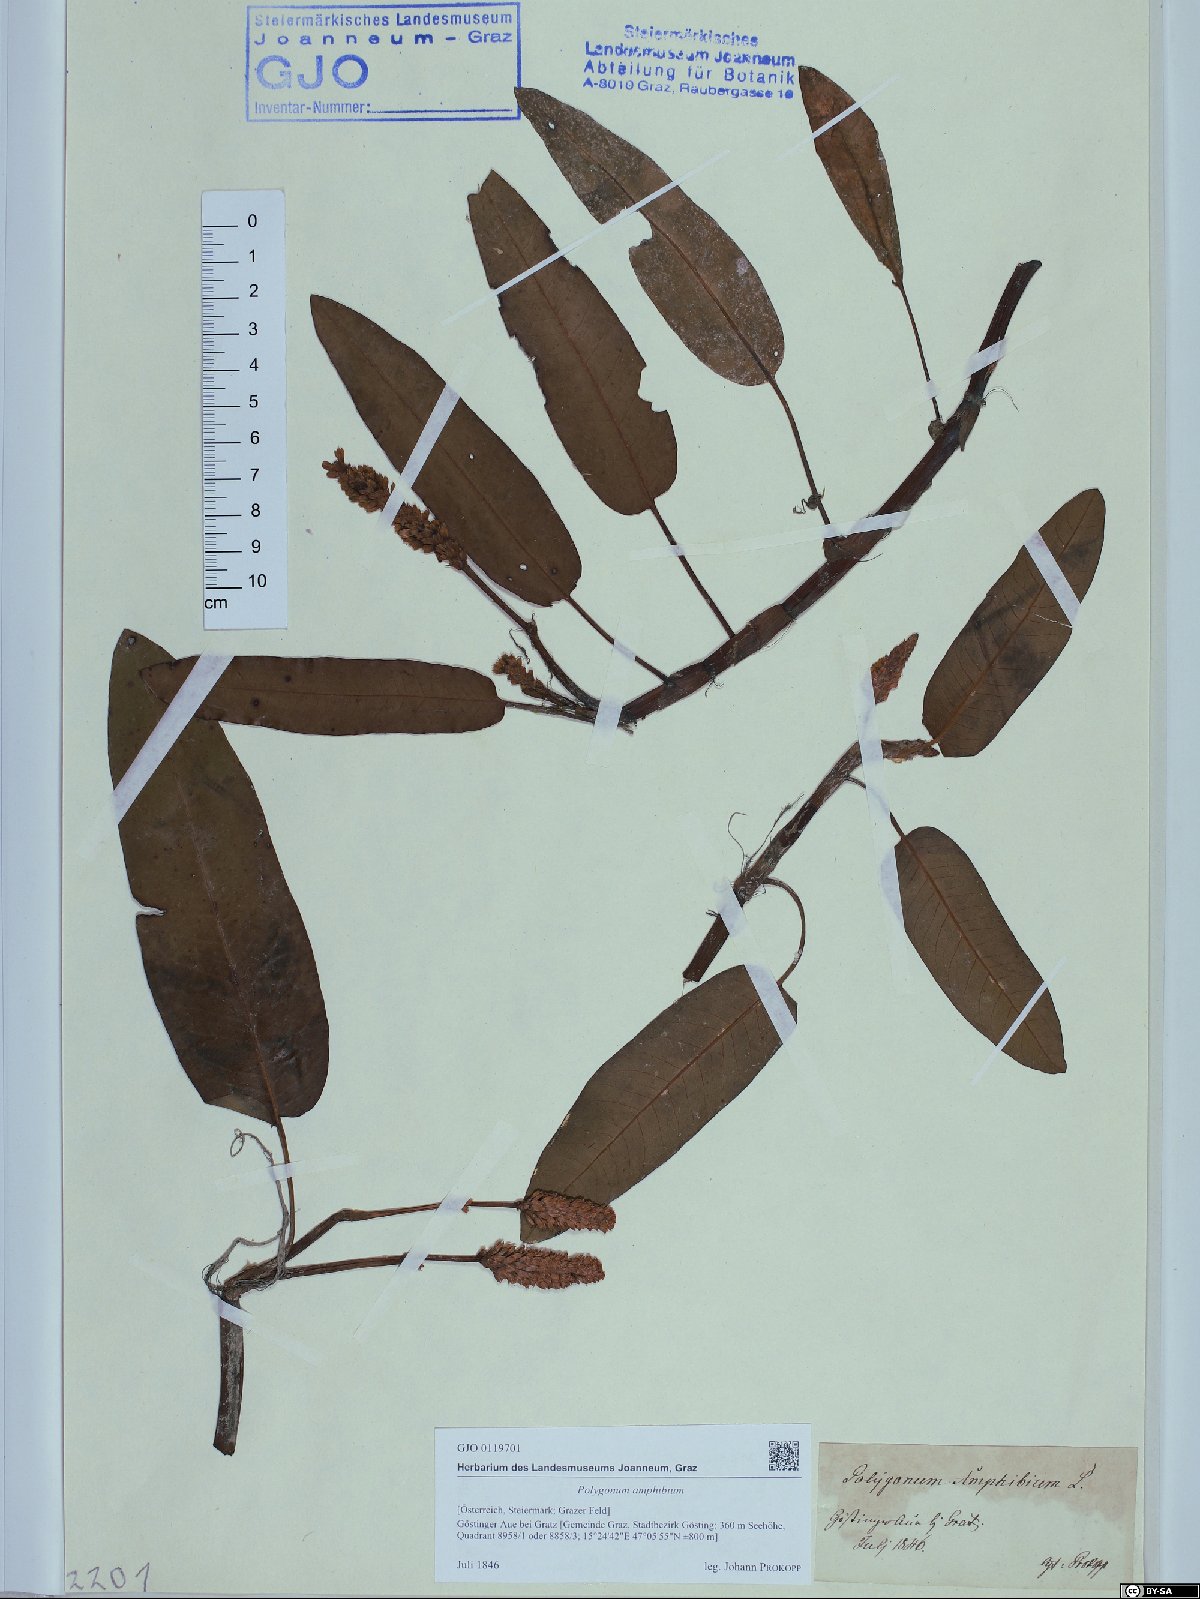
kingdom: Plantae
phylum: Tracheophyta
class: Magnoliopsida
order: Caryophyllales
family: Polygonaceae
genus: Persicaria
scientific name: Persicaria amphibia
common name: Amphibious bistort
